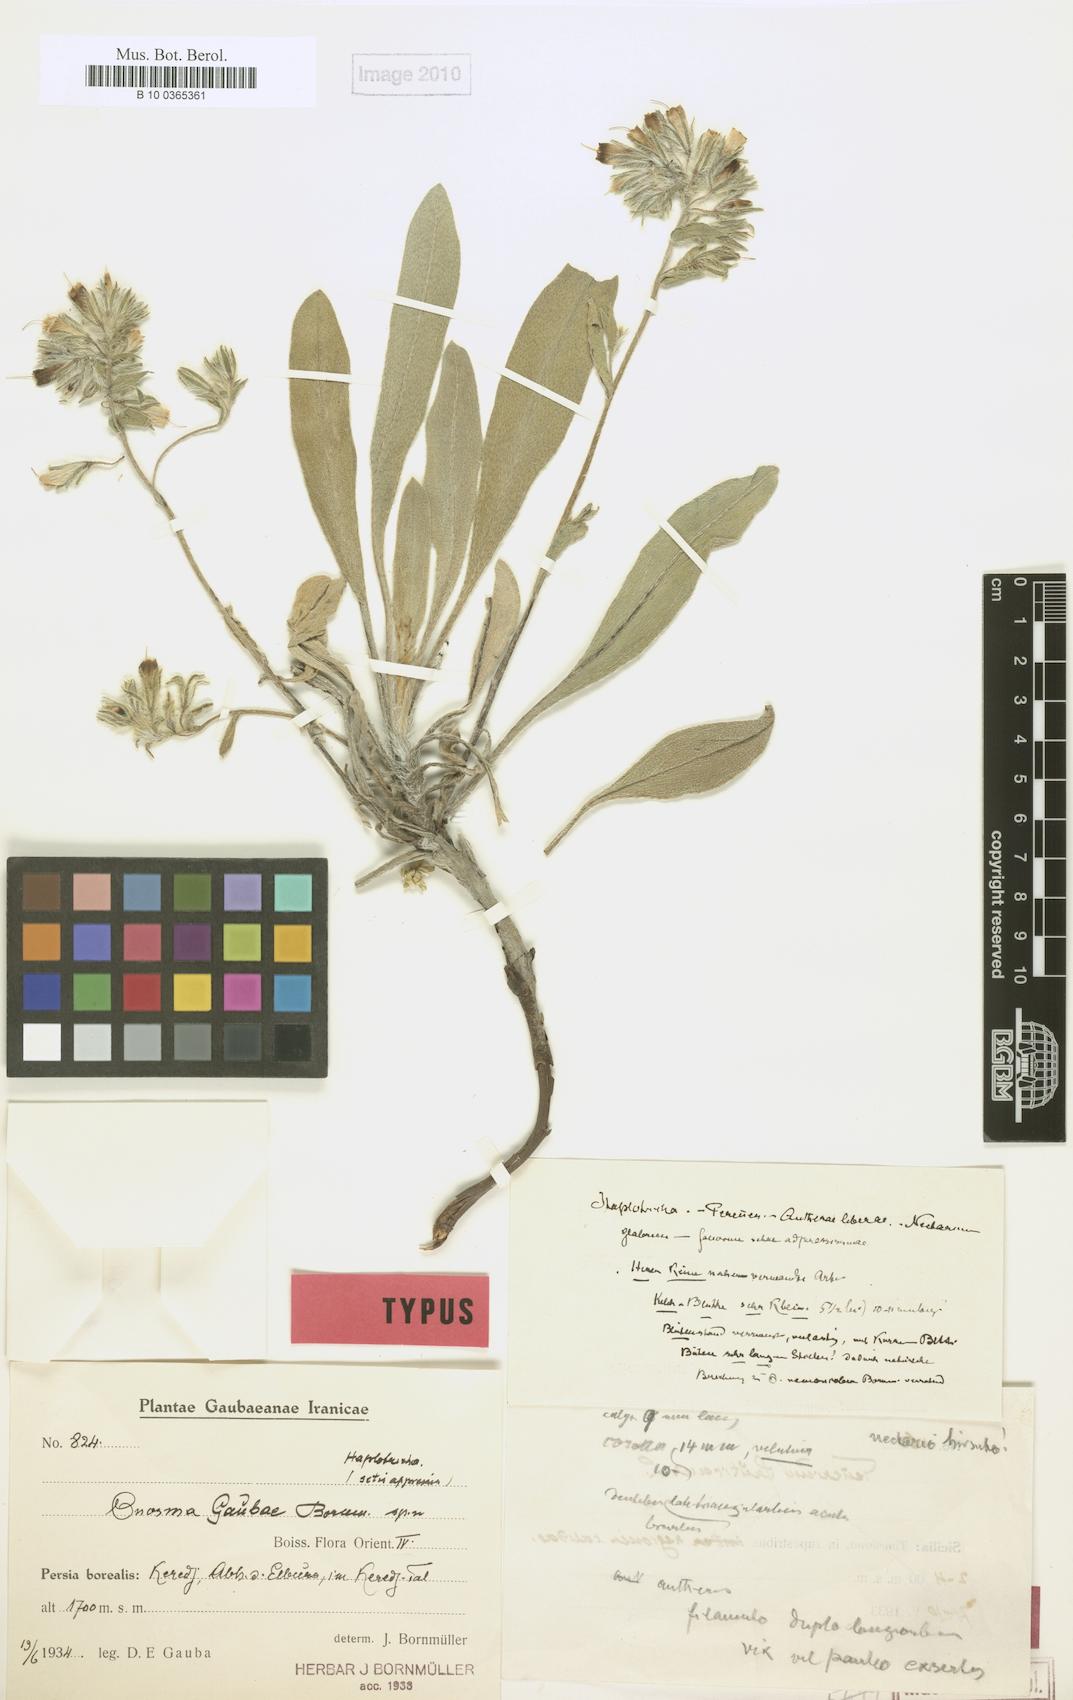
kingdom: Plantae
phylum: Tracheophyta
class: Magnoliopsida
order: Boraginales
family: Boraginaceae
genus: Onosma
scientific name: Onosma gaubae
